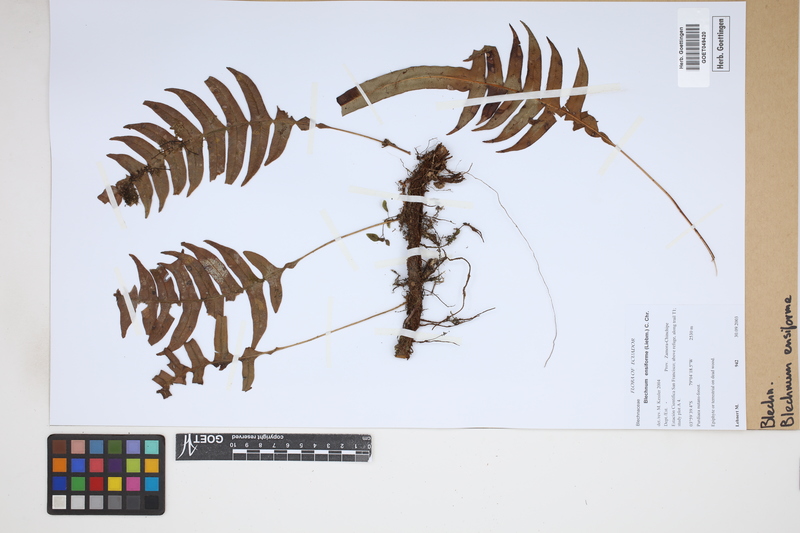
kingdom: Plantae
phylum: Tracheophyta
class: Polypodiopsida
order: Polypodiales
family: Blechnaceae
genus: Lomaridium
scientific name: Lomaridium ensiforme
